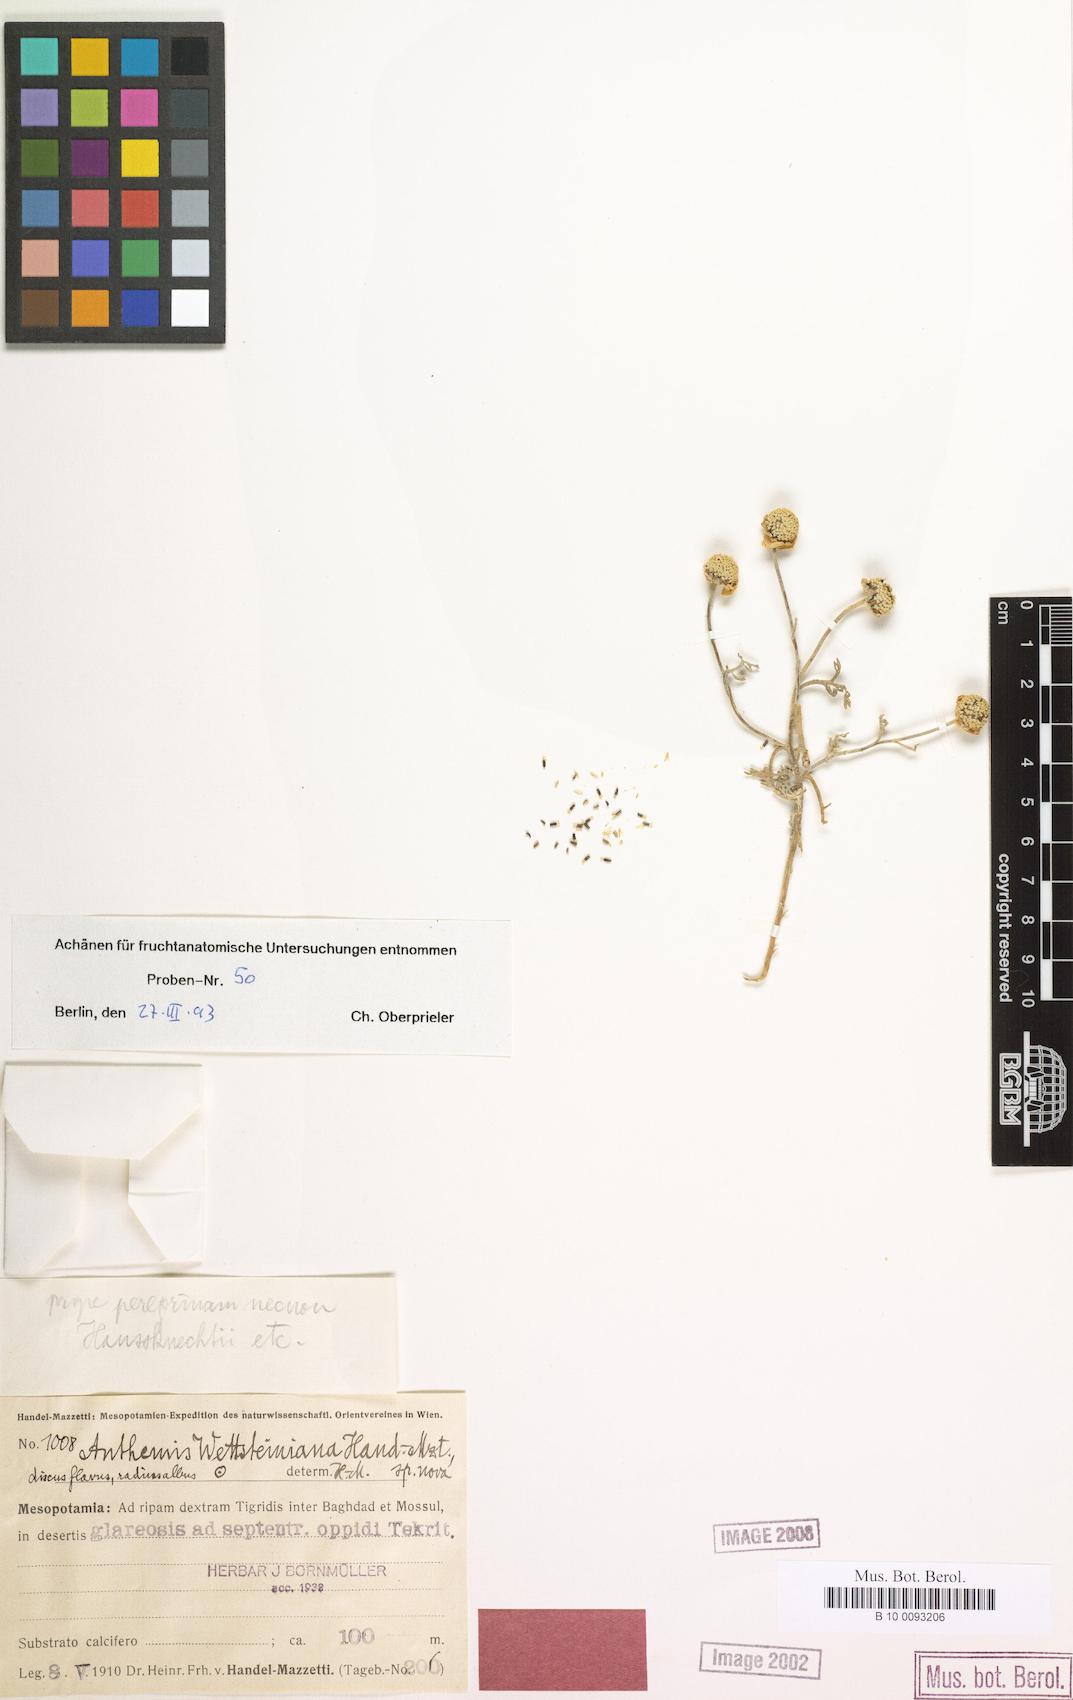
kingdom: Plantae
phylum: Tracheophyta
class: Magnoliopsida
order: Asterales
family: Asteraceae
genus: Anthemis
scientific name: Anthemis wettsteiniana
